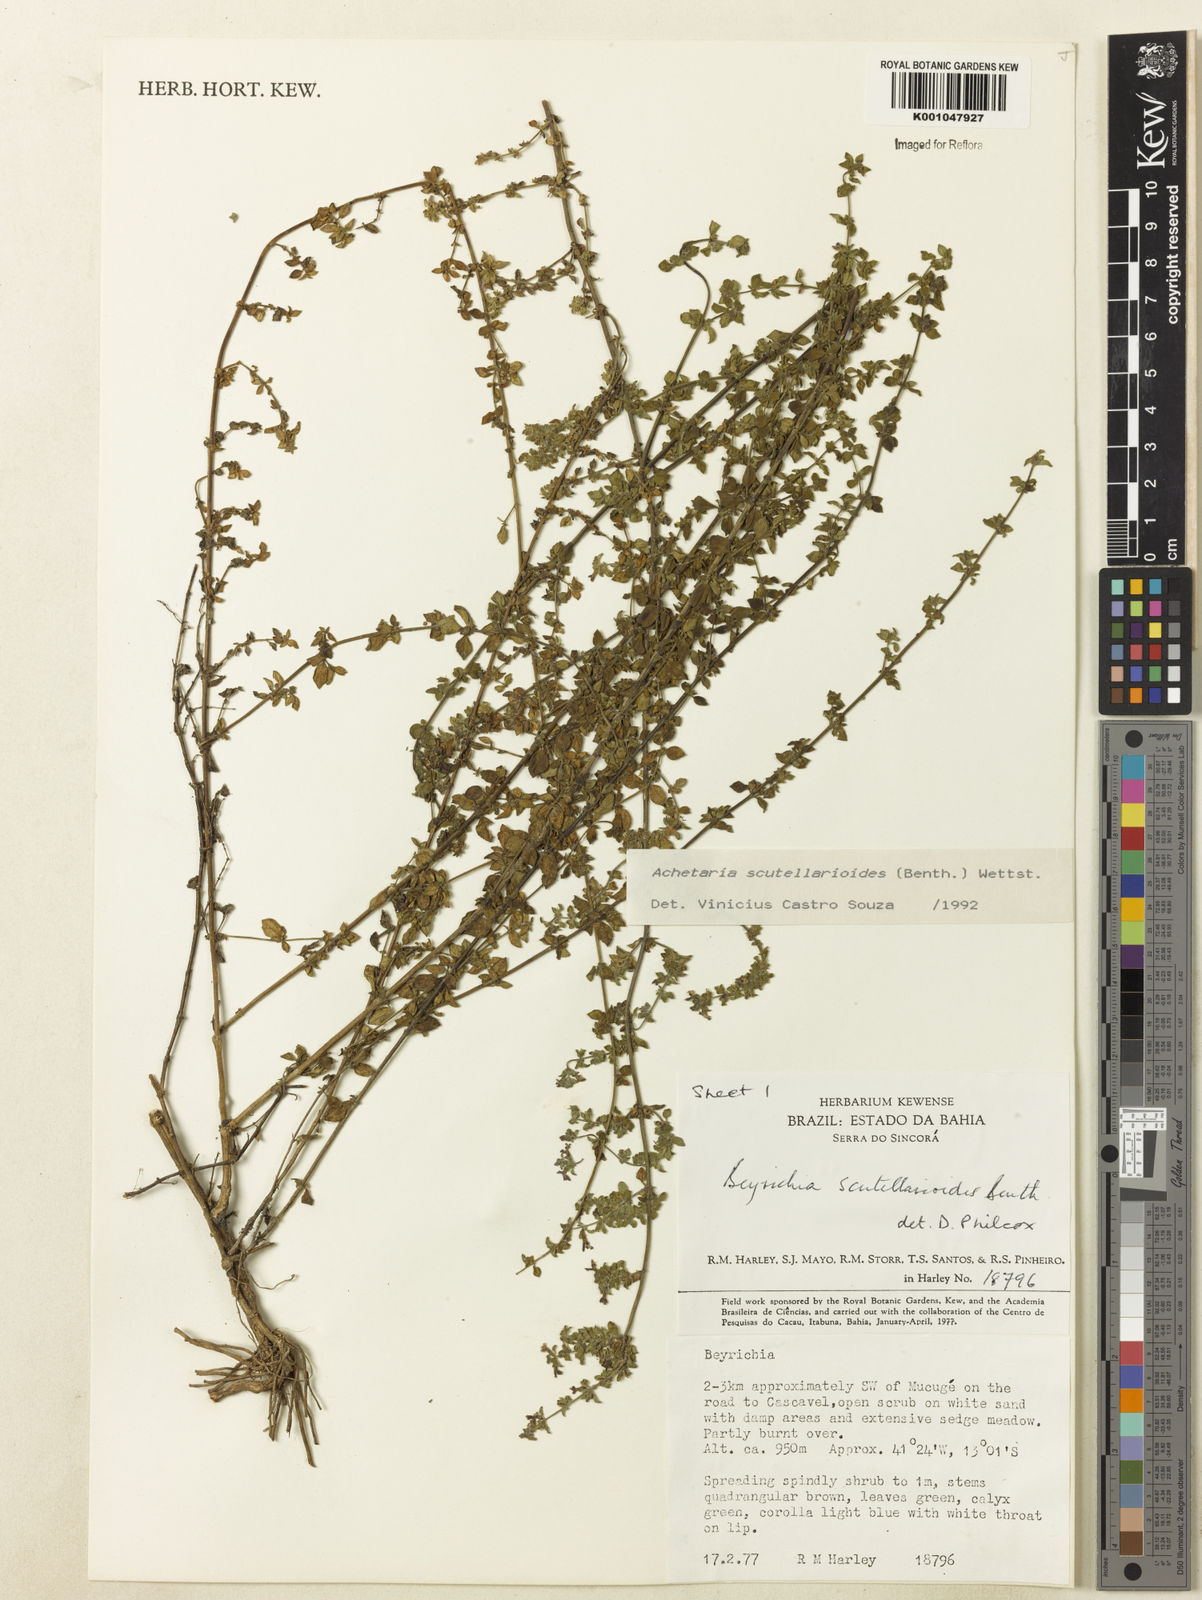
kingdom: Plantae
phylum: Tracheophyta
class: Magnoliopsida
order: Lamiales
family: Plantaginaceae
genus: Matourea
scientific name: Matourea scutellarioides
